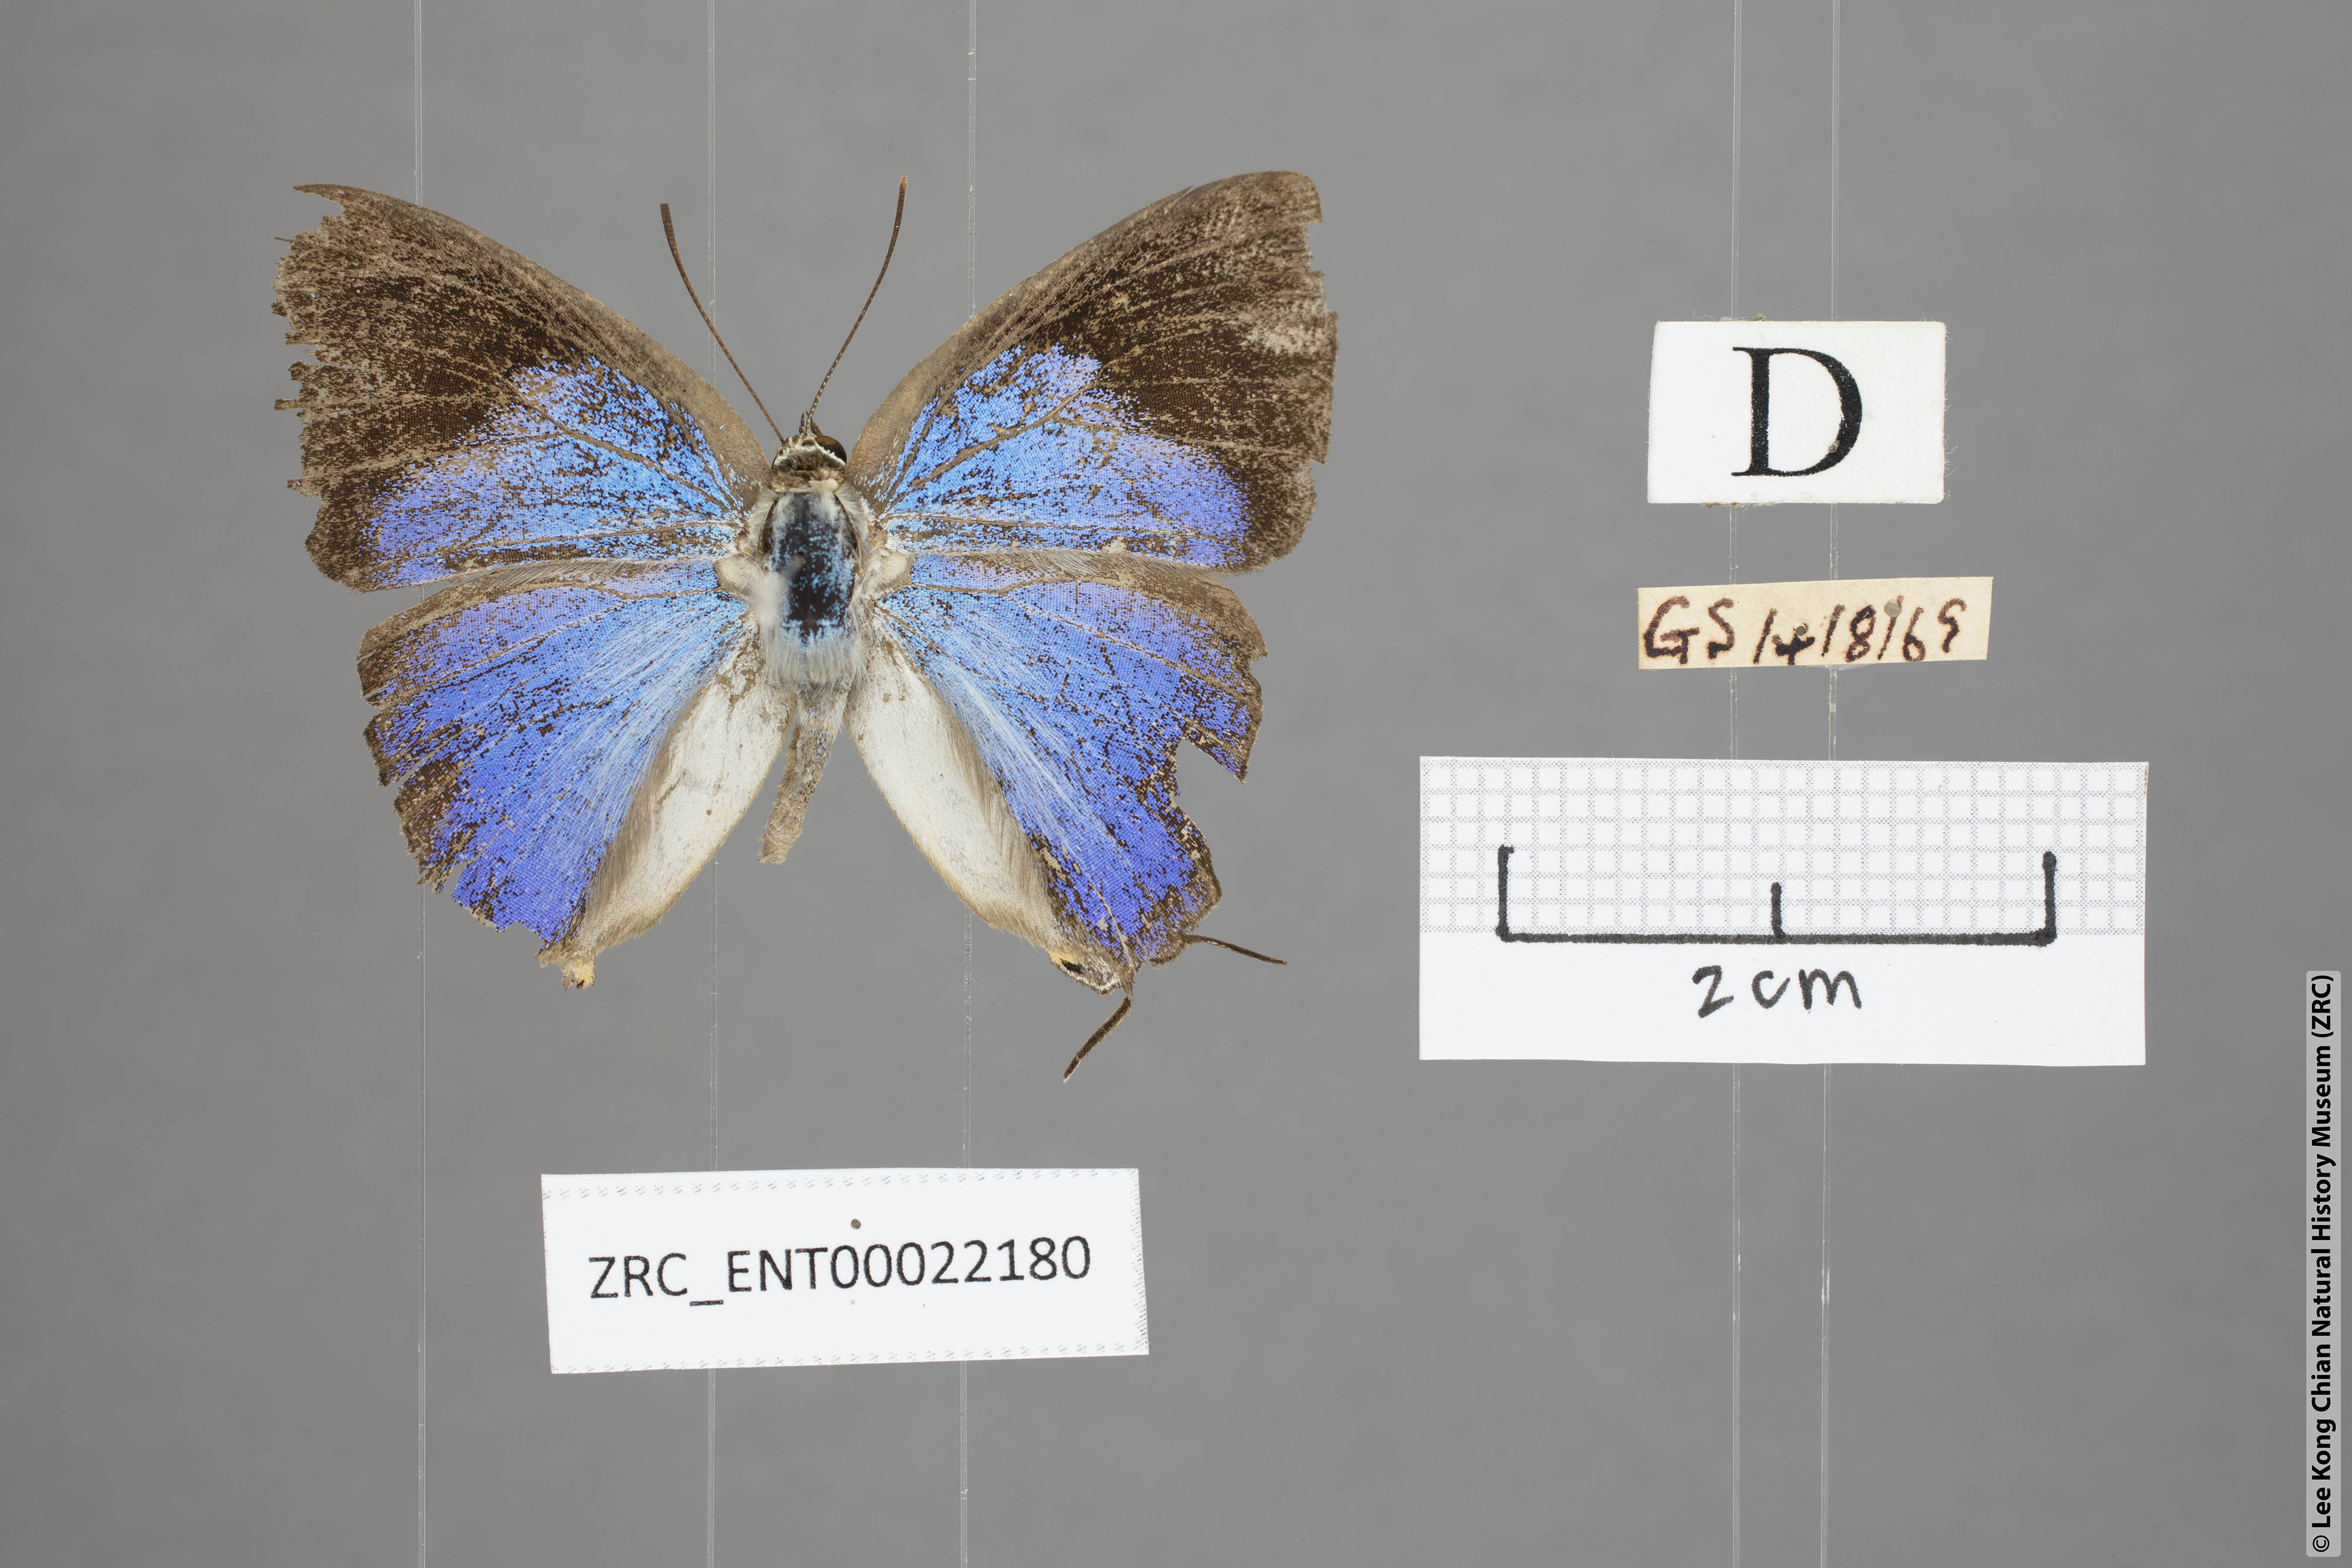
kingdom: Animalia
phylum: Arthropoda
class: Insecta
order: Lepidoptera
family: Lycaenidae
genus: Tajuria
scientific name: Tajuria deudaix
